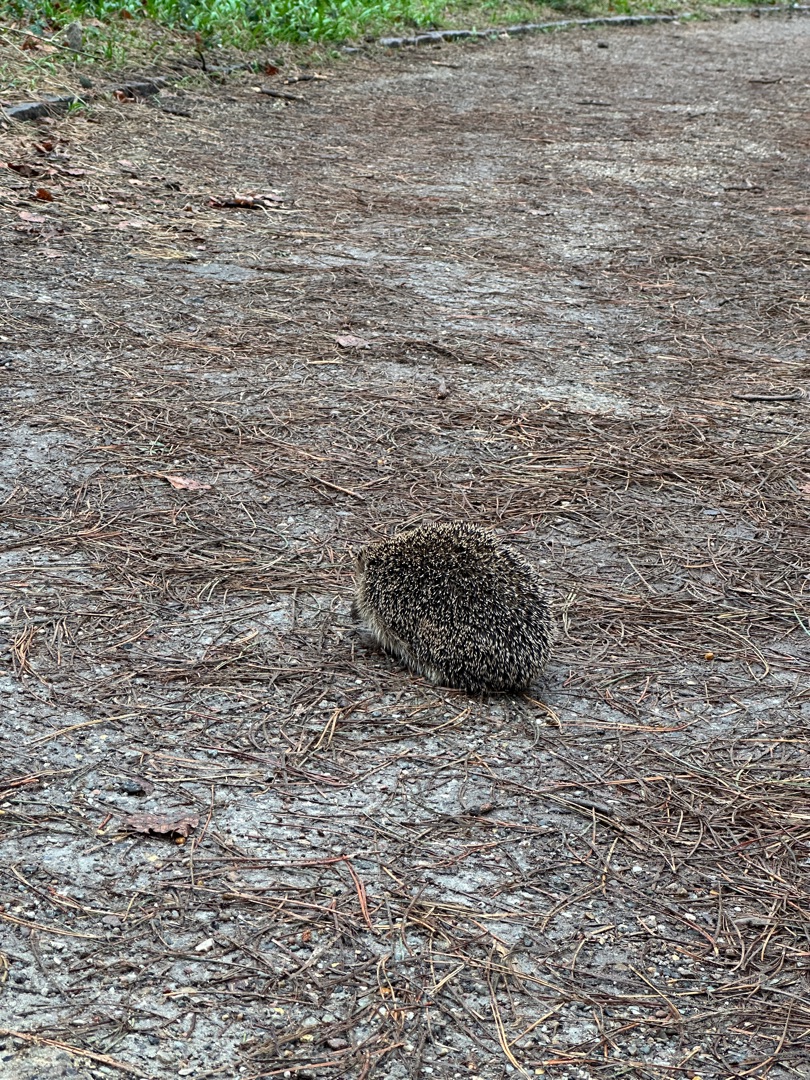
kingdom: Animalia
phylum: Chordata
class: Mammalia
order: Erinaceomorpha
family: Erinaceidae
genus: Erinaceus
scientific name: Erinaceus europaeus
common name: Pindsvin
